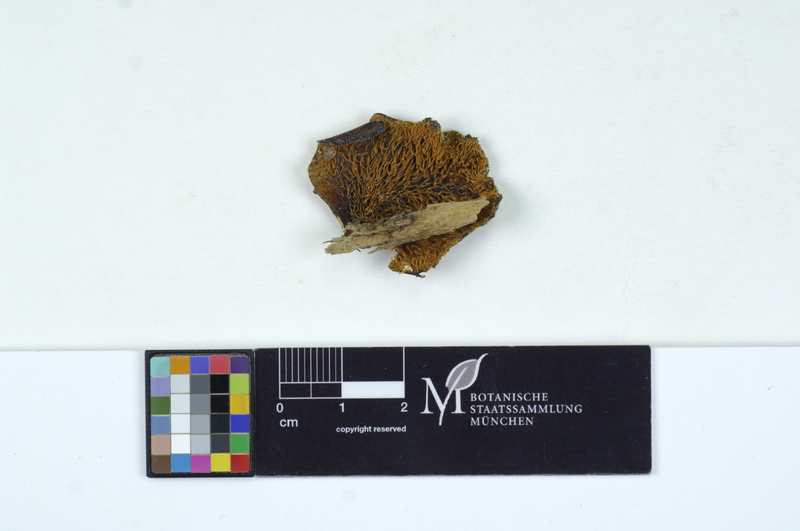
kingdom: Fungi
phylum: Basidiomycota
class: Agaricomycetes
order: Auriculariales
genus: Pseudohydnum
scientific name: Pseudohydnum gelatinosum
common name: Jelly tongue
